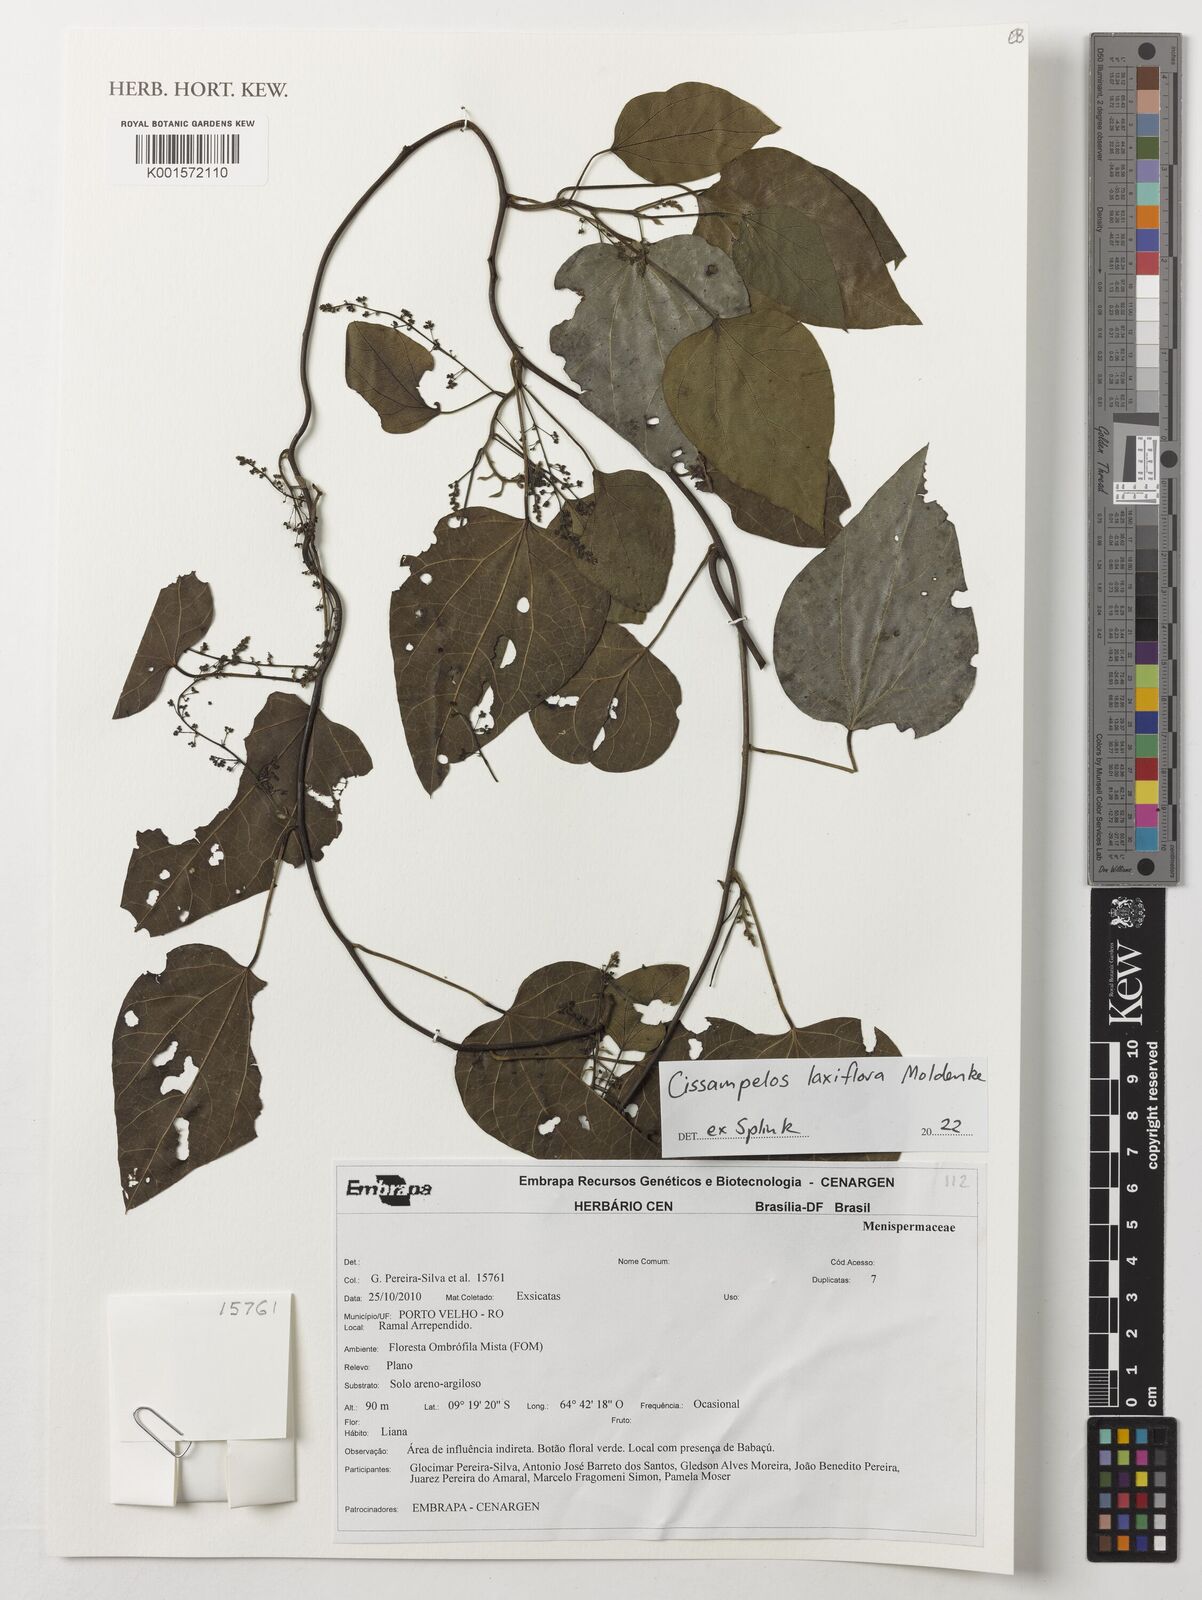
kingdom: Plantae
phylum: Tracheophyta
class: Magnoliopsida
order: Ranunculales
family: Menispermaceae
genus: Cissampelos
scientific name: Cissampelos laxiflora
